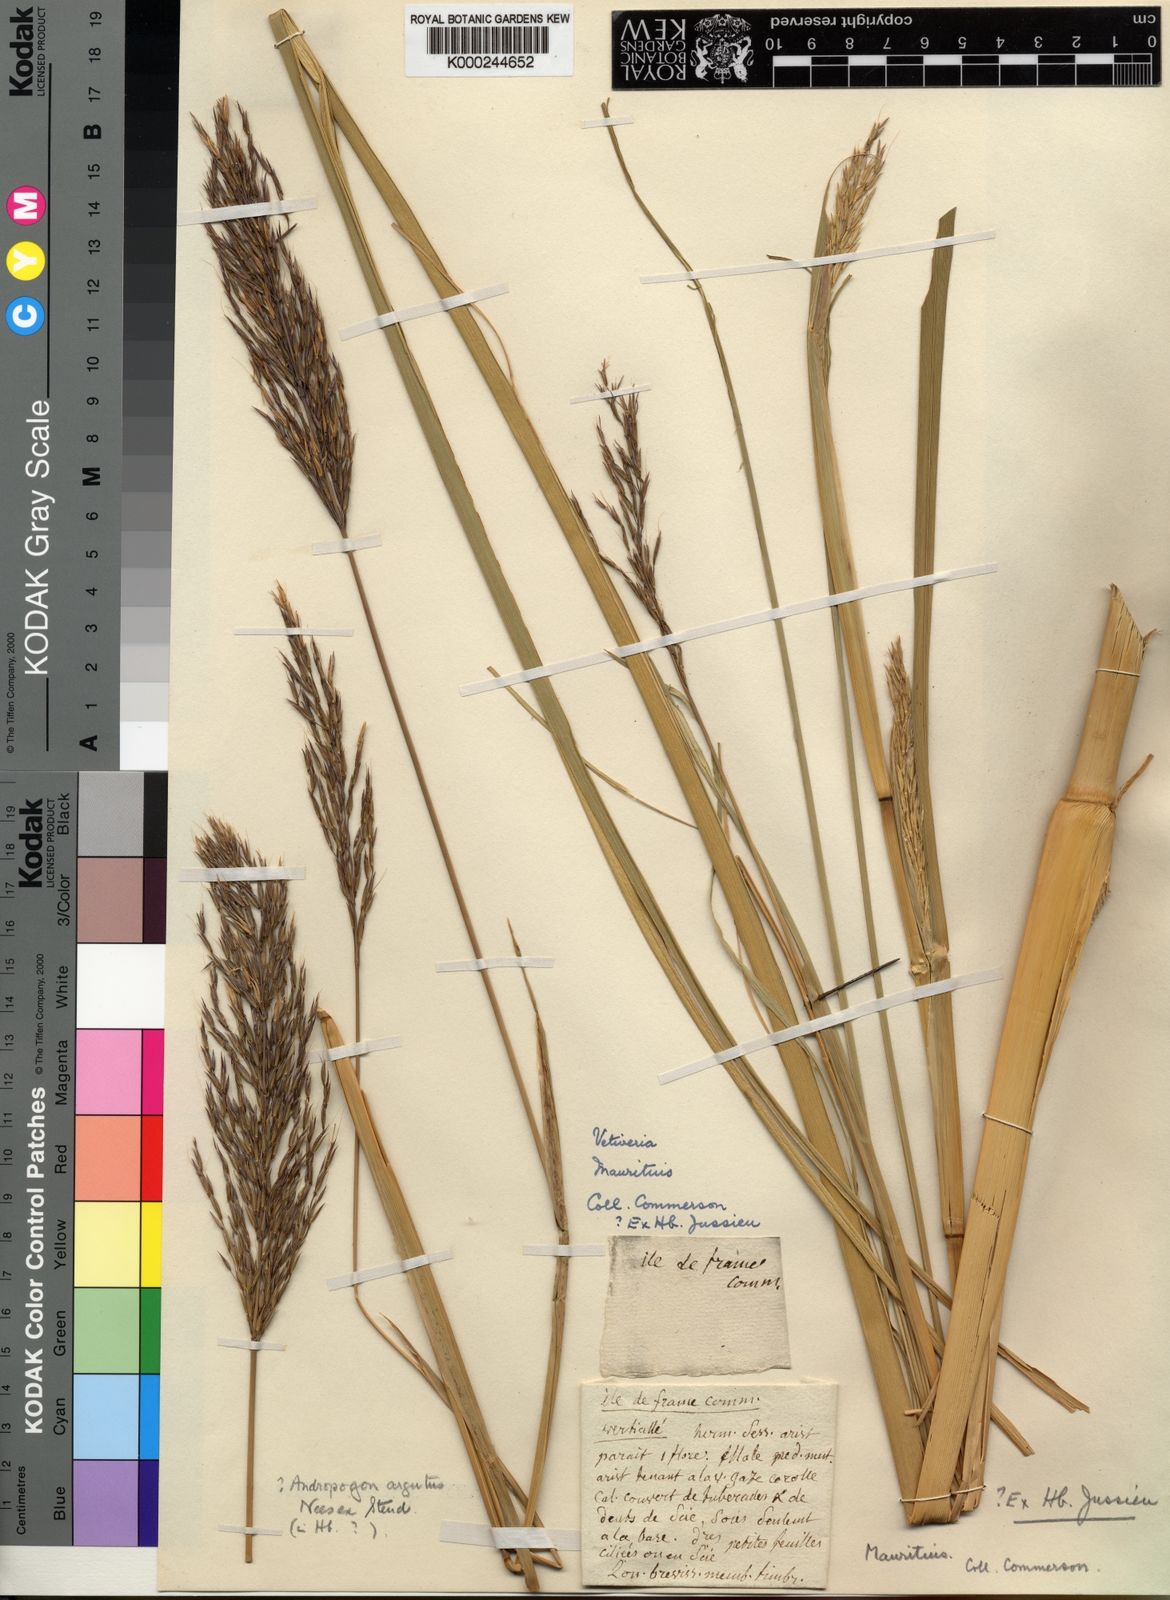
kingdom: Plantae
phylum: Tracheophyta
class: Liliopsida
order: Poales
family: Poaceae
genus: Chrysopogon
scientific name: Chrysopogon argutus
